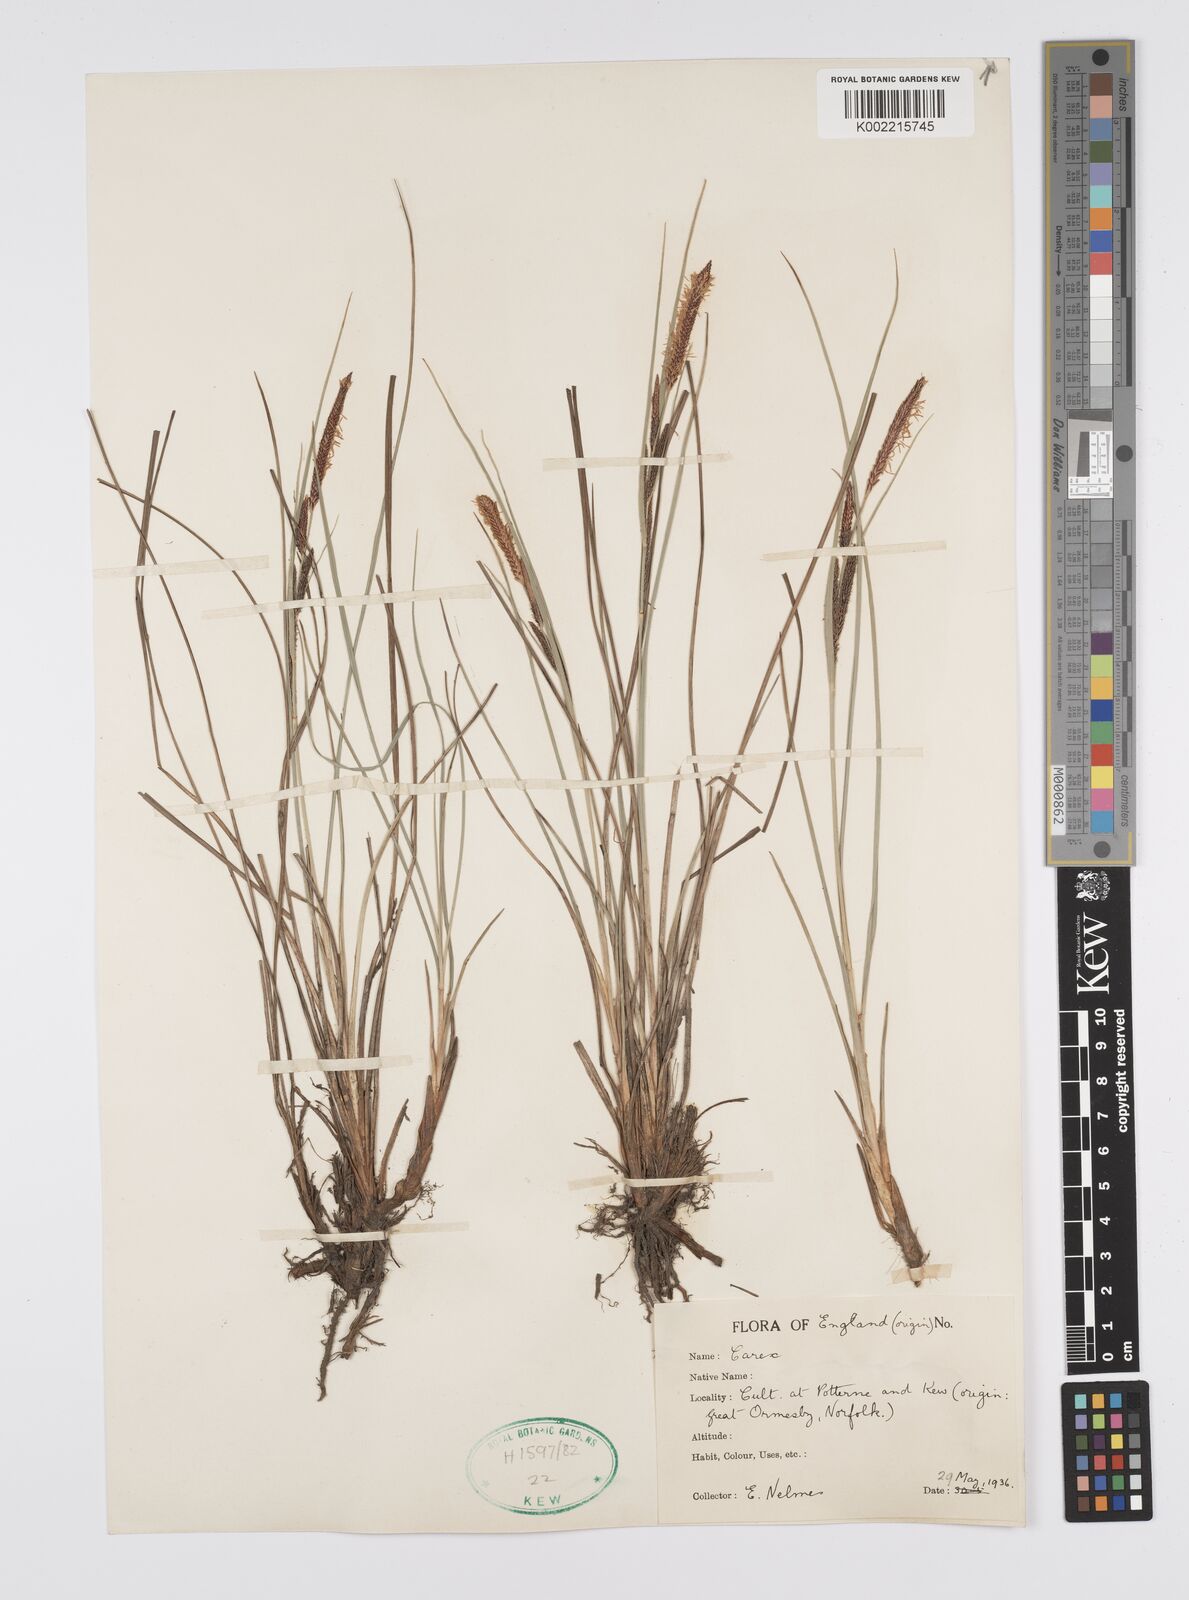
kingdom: Plantae
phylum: Tracheophyta
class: Liliopsida
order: Poales
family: Cyperaceae
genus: Carex
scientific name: Carex
